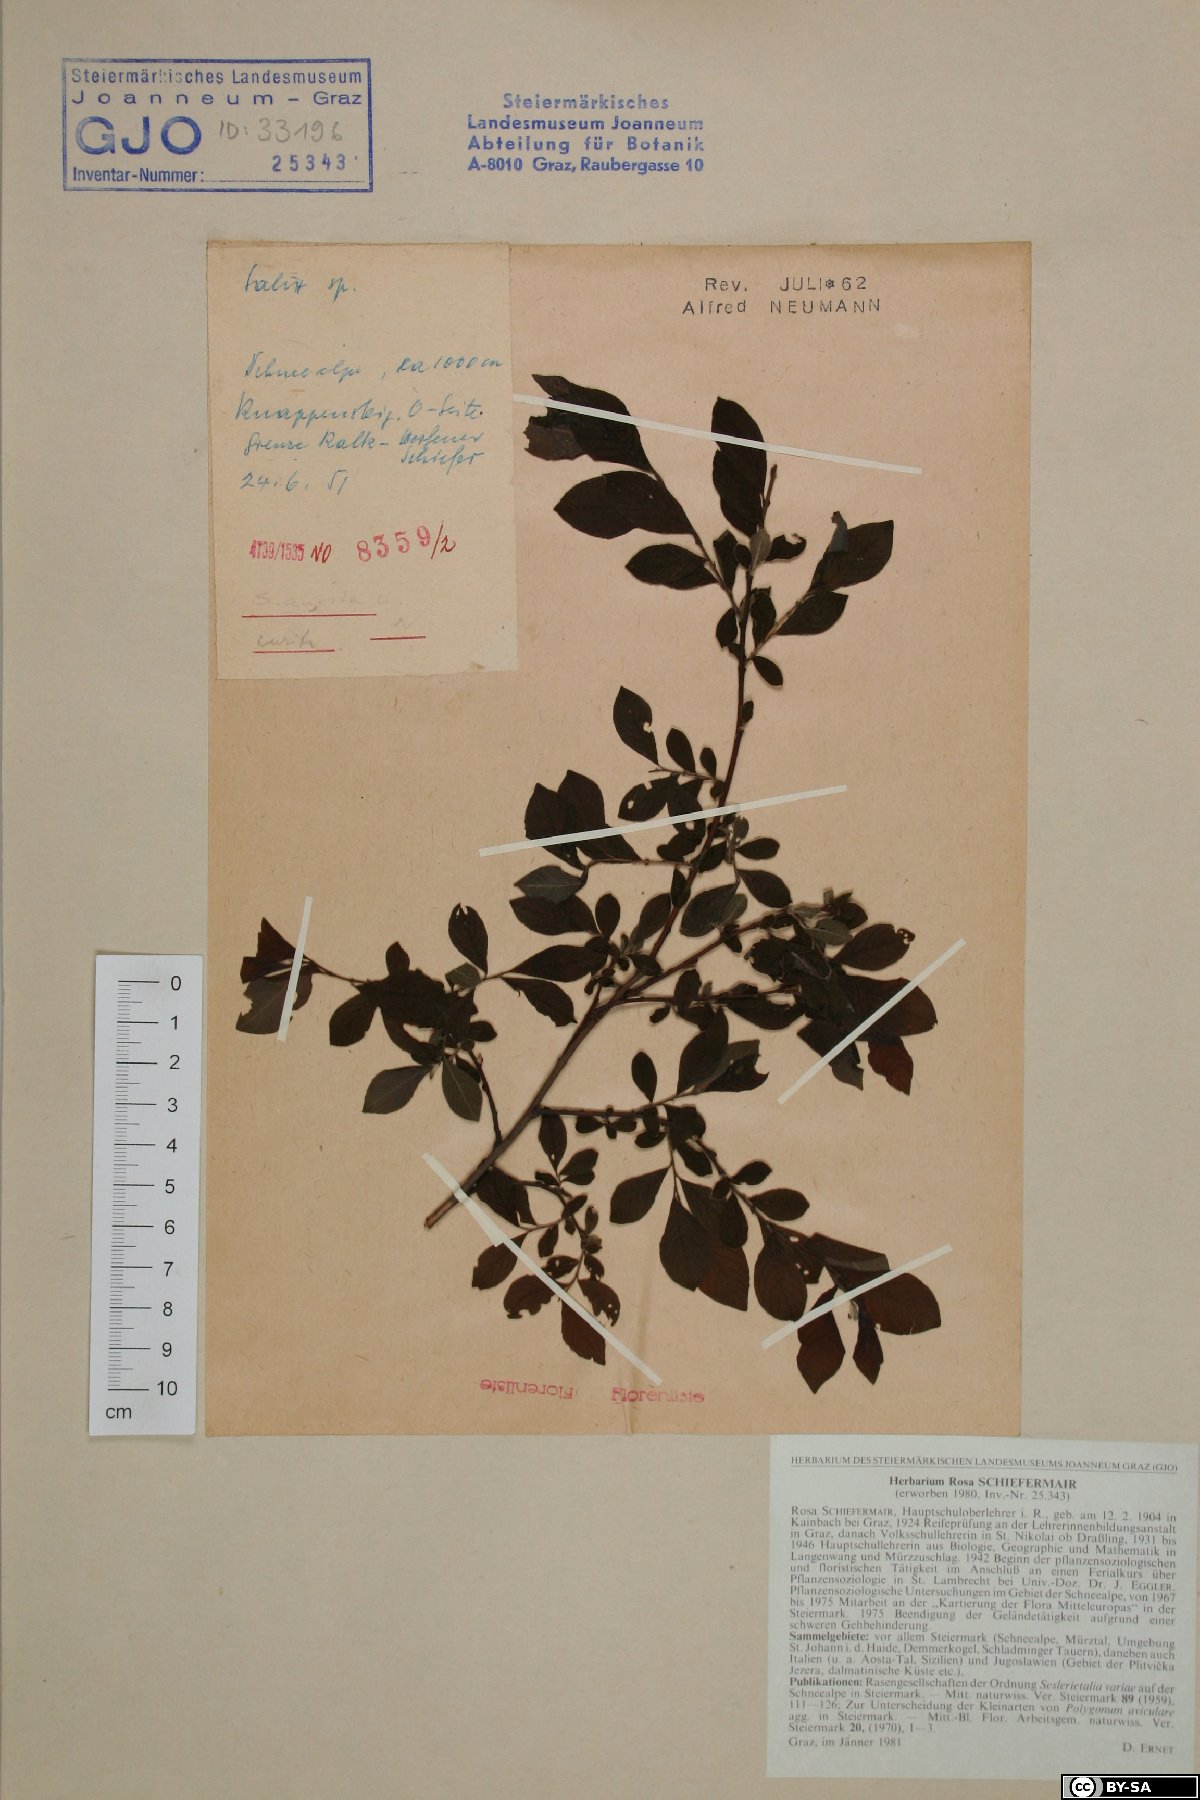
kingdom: Plantae
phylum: Tracheophyta
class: Magnoliopsida
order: Malpighiales
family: Salicaceae
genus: Salix
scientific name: Salix aurita
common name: Eared willow
